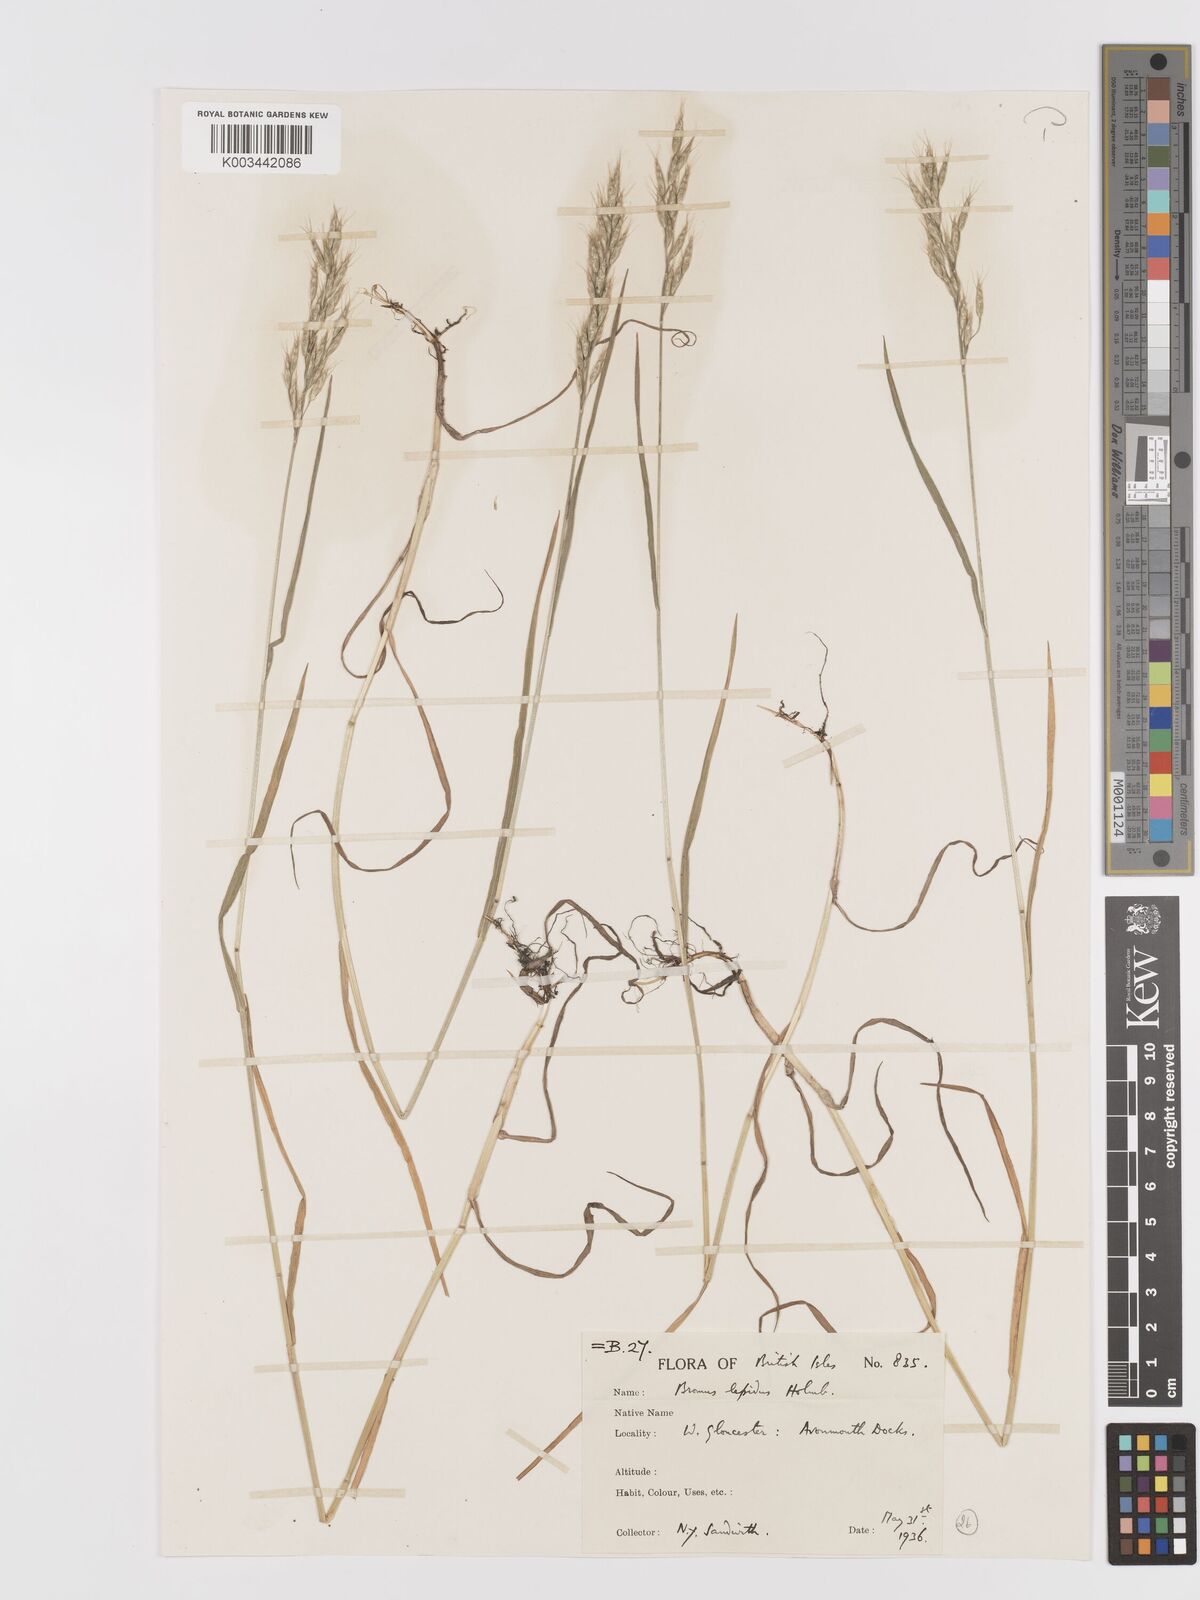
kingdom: Plantae
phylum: Tracheophyta
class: Liliopsida
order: Poales
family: Poaceae
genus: Bromus
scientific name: Bromus lepidus
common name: Slender soft-brome
